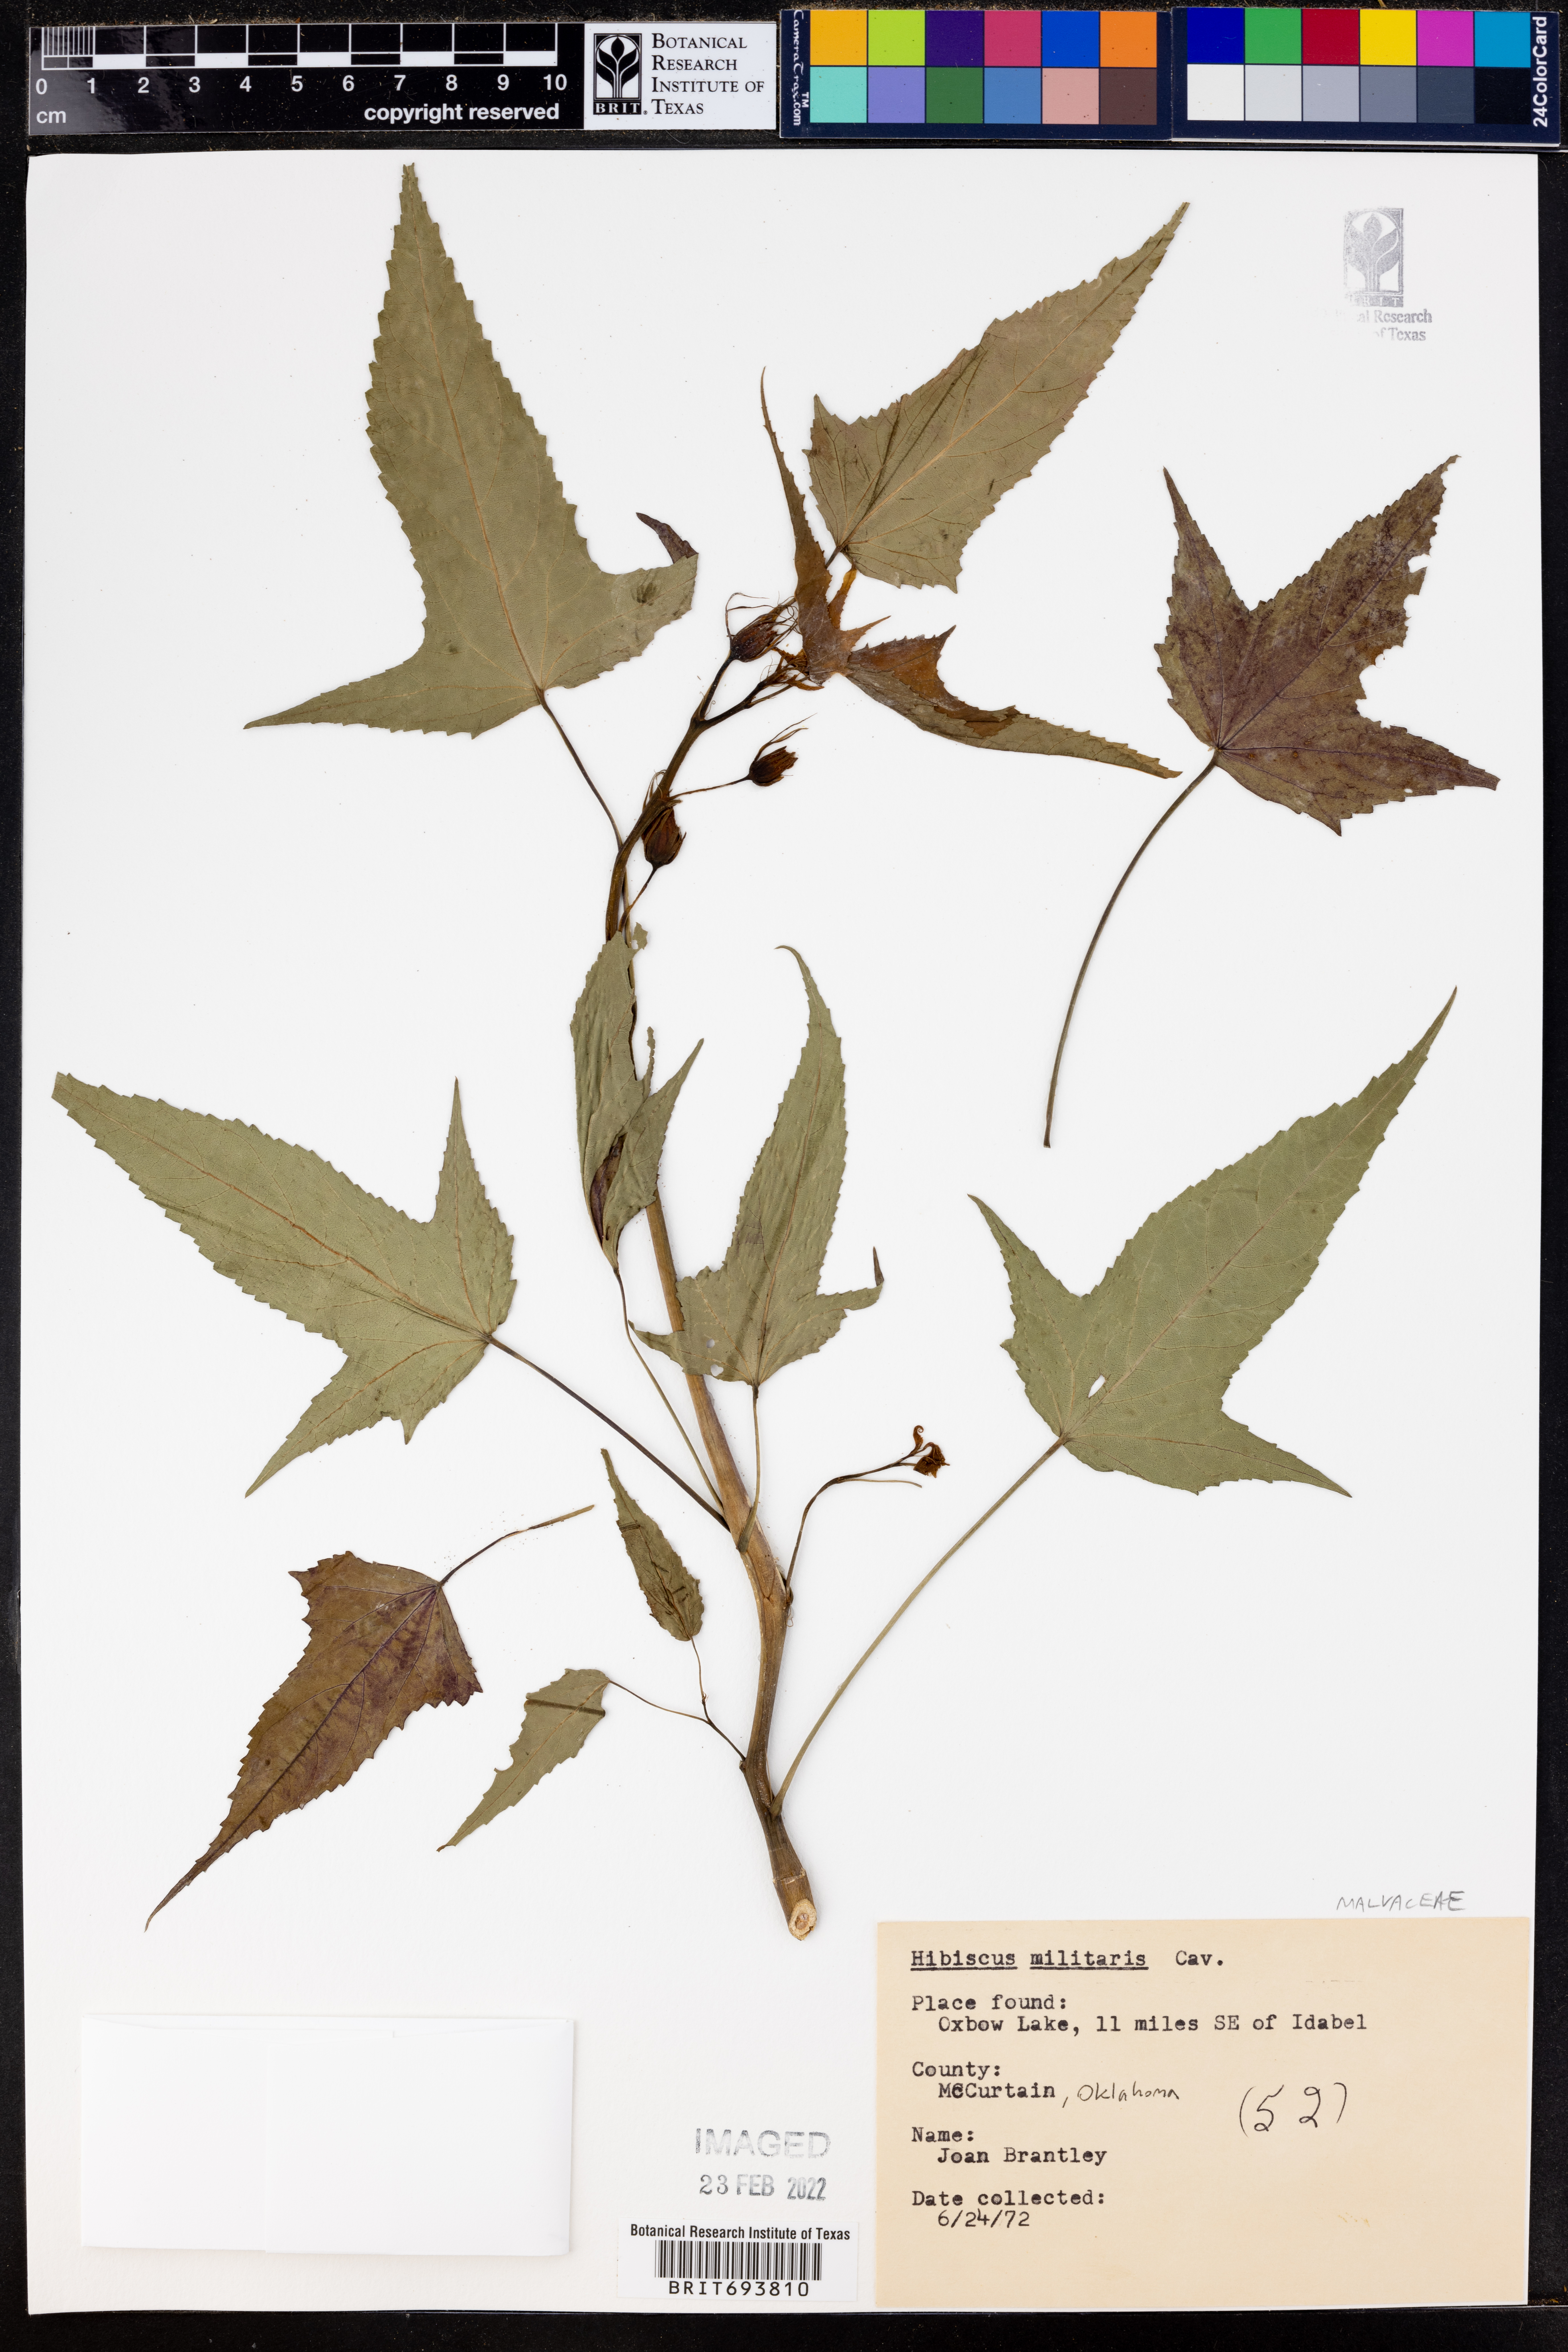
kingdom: Plantae
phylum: Tracheophyta
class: Magnoliopsida
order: Malvales
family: Malvaceae
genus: Hibiscus
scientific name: Hibiscus laevis
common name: Scarlet rose-mallow
